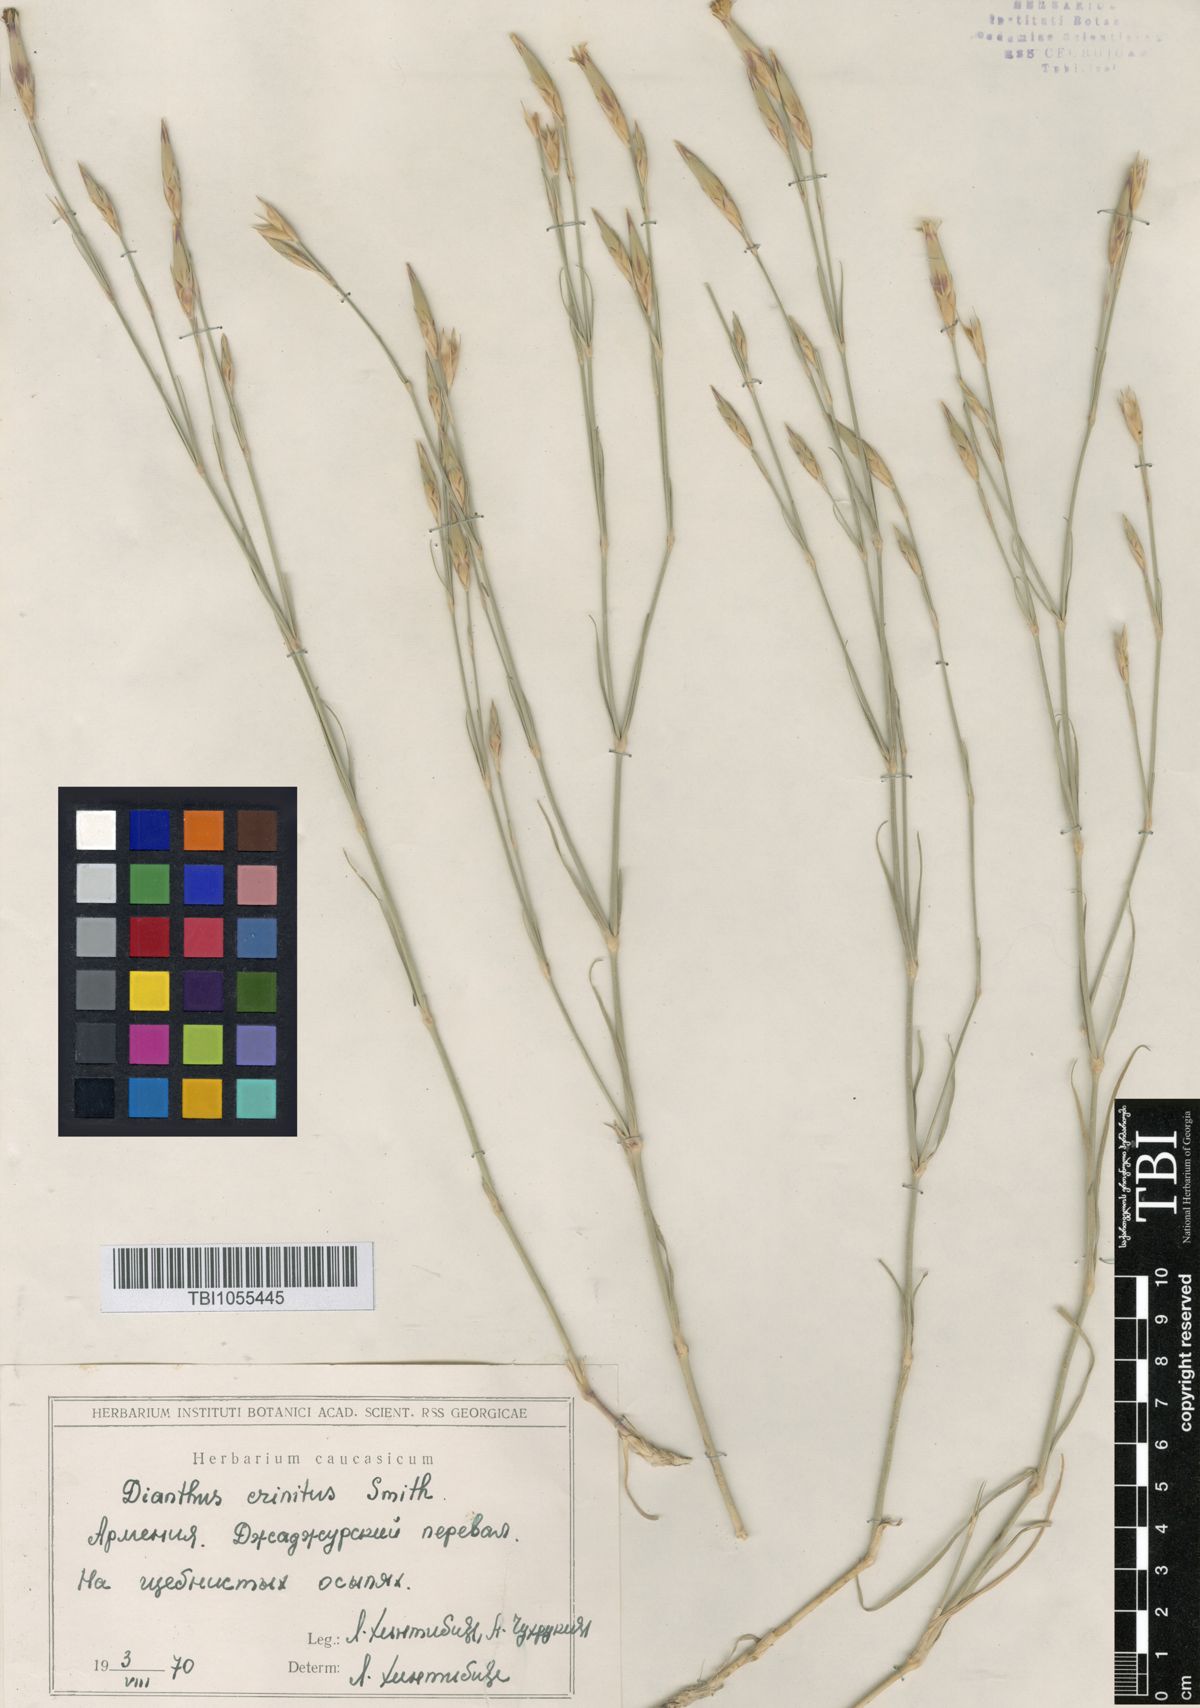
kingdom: Plantae
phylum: Tracheophyta
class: Magnoliopsida
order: Caryophyllales
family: Caryophyllaceae
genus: Dianthus
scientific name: Dianthus crinitus
